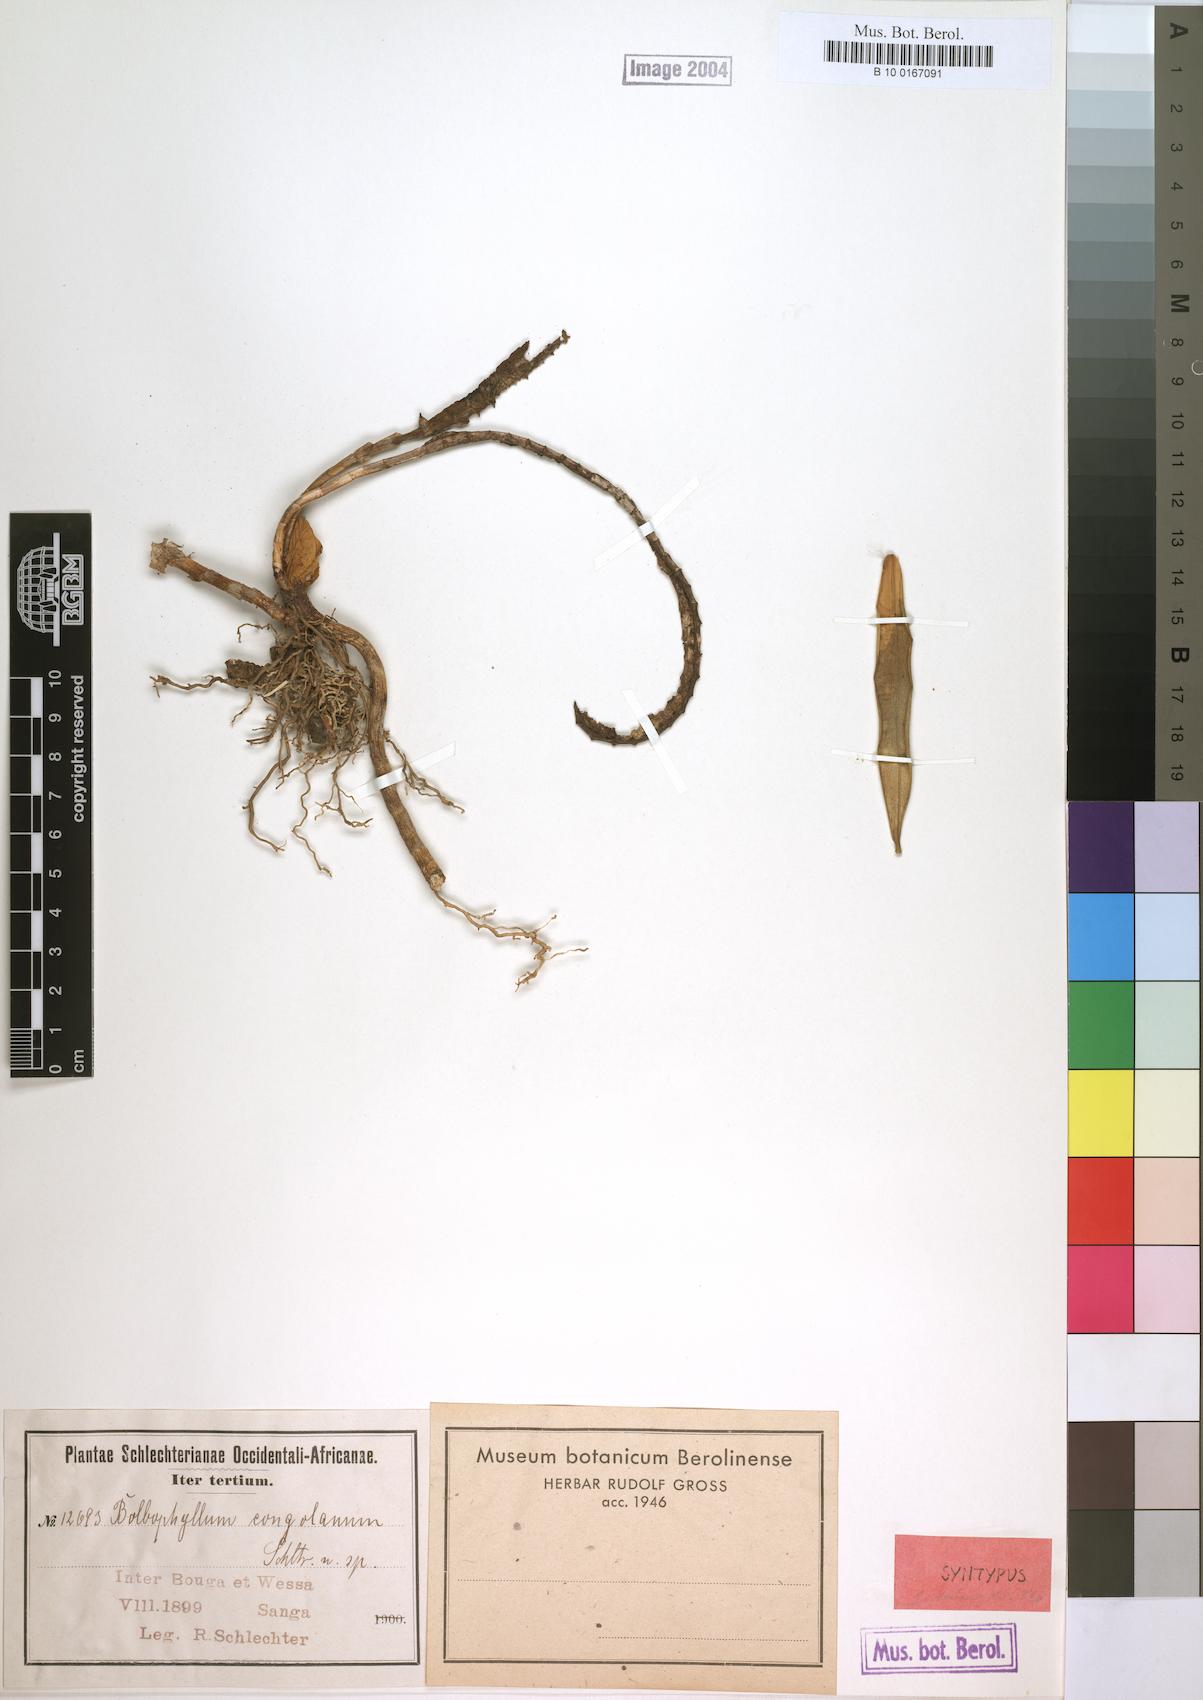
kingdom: Plantae
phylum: Tracheophyta
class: Liliopsida
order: Asparagales
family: Orchidaceae
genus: Bulbophyllum
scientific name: Bulbophyllum scaberulum
